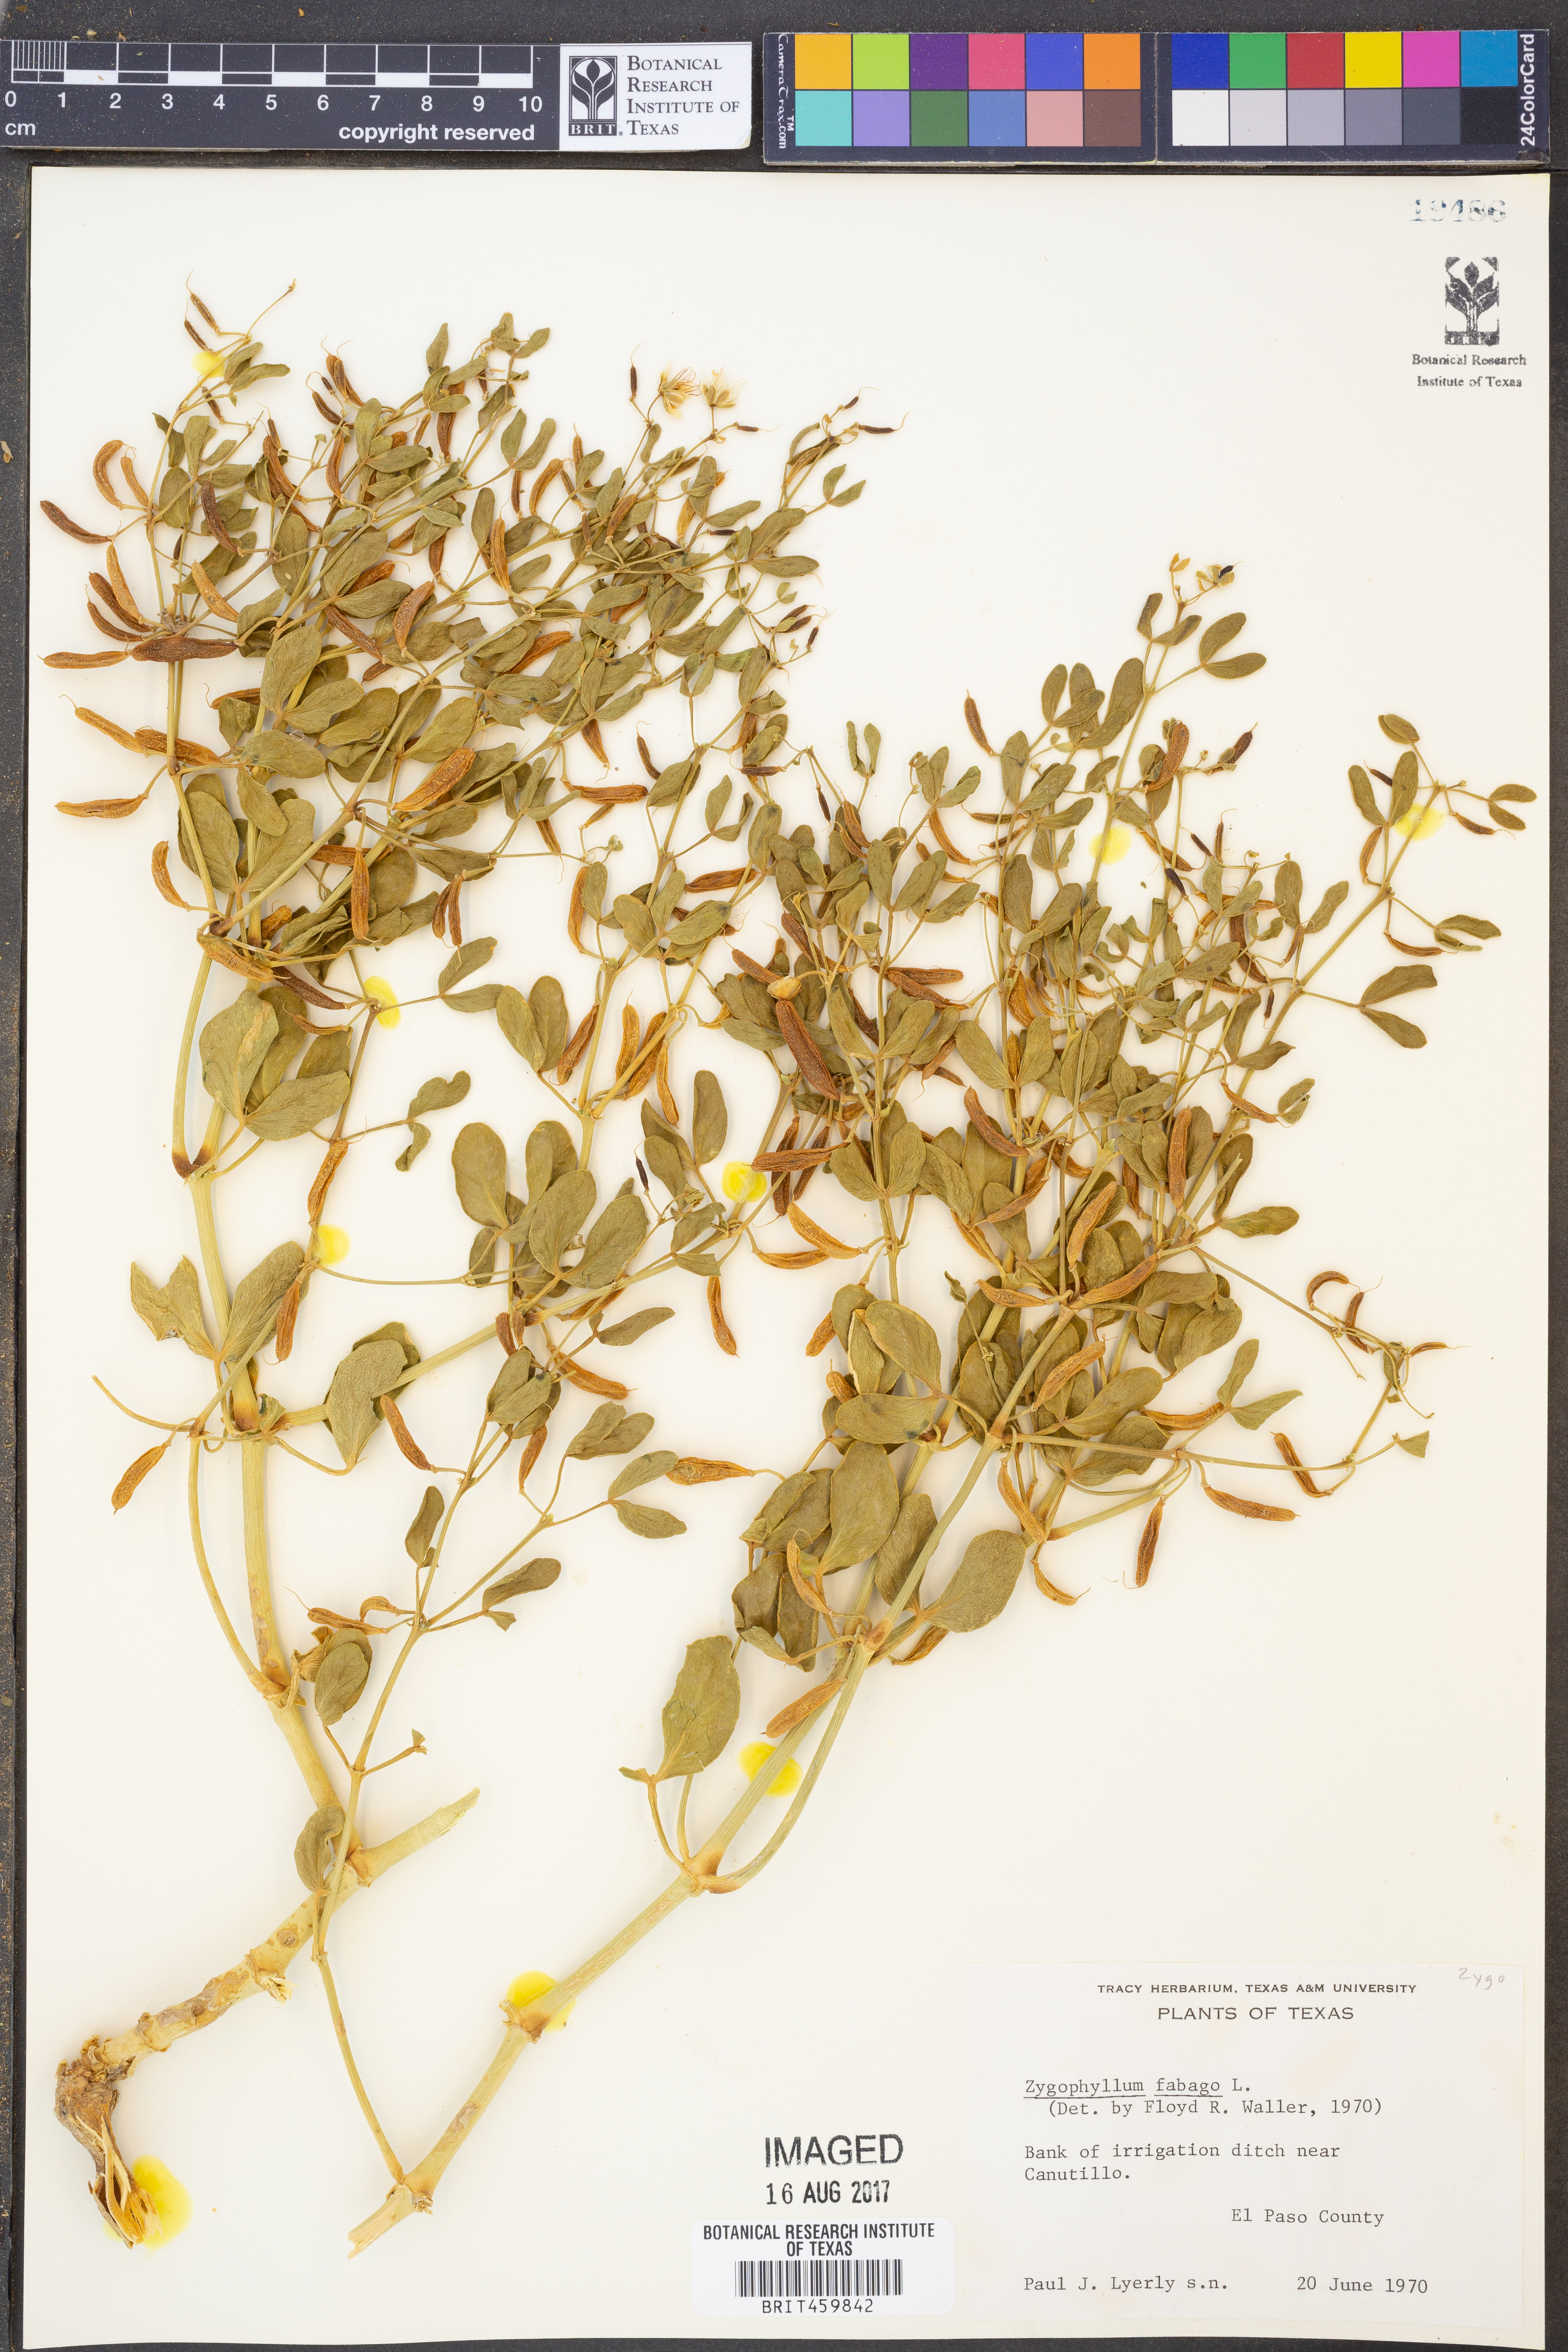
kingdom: Plantae
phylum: Tracheophyta
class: Magnoliopsida
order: Zygophyllales
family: Zygophyllaceae
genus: Zygophyllum
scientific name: Zygophyllum fabago
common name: Syrian beancaper
